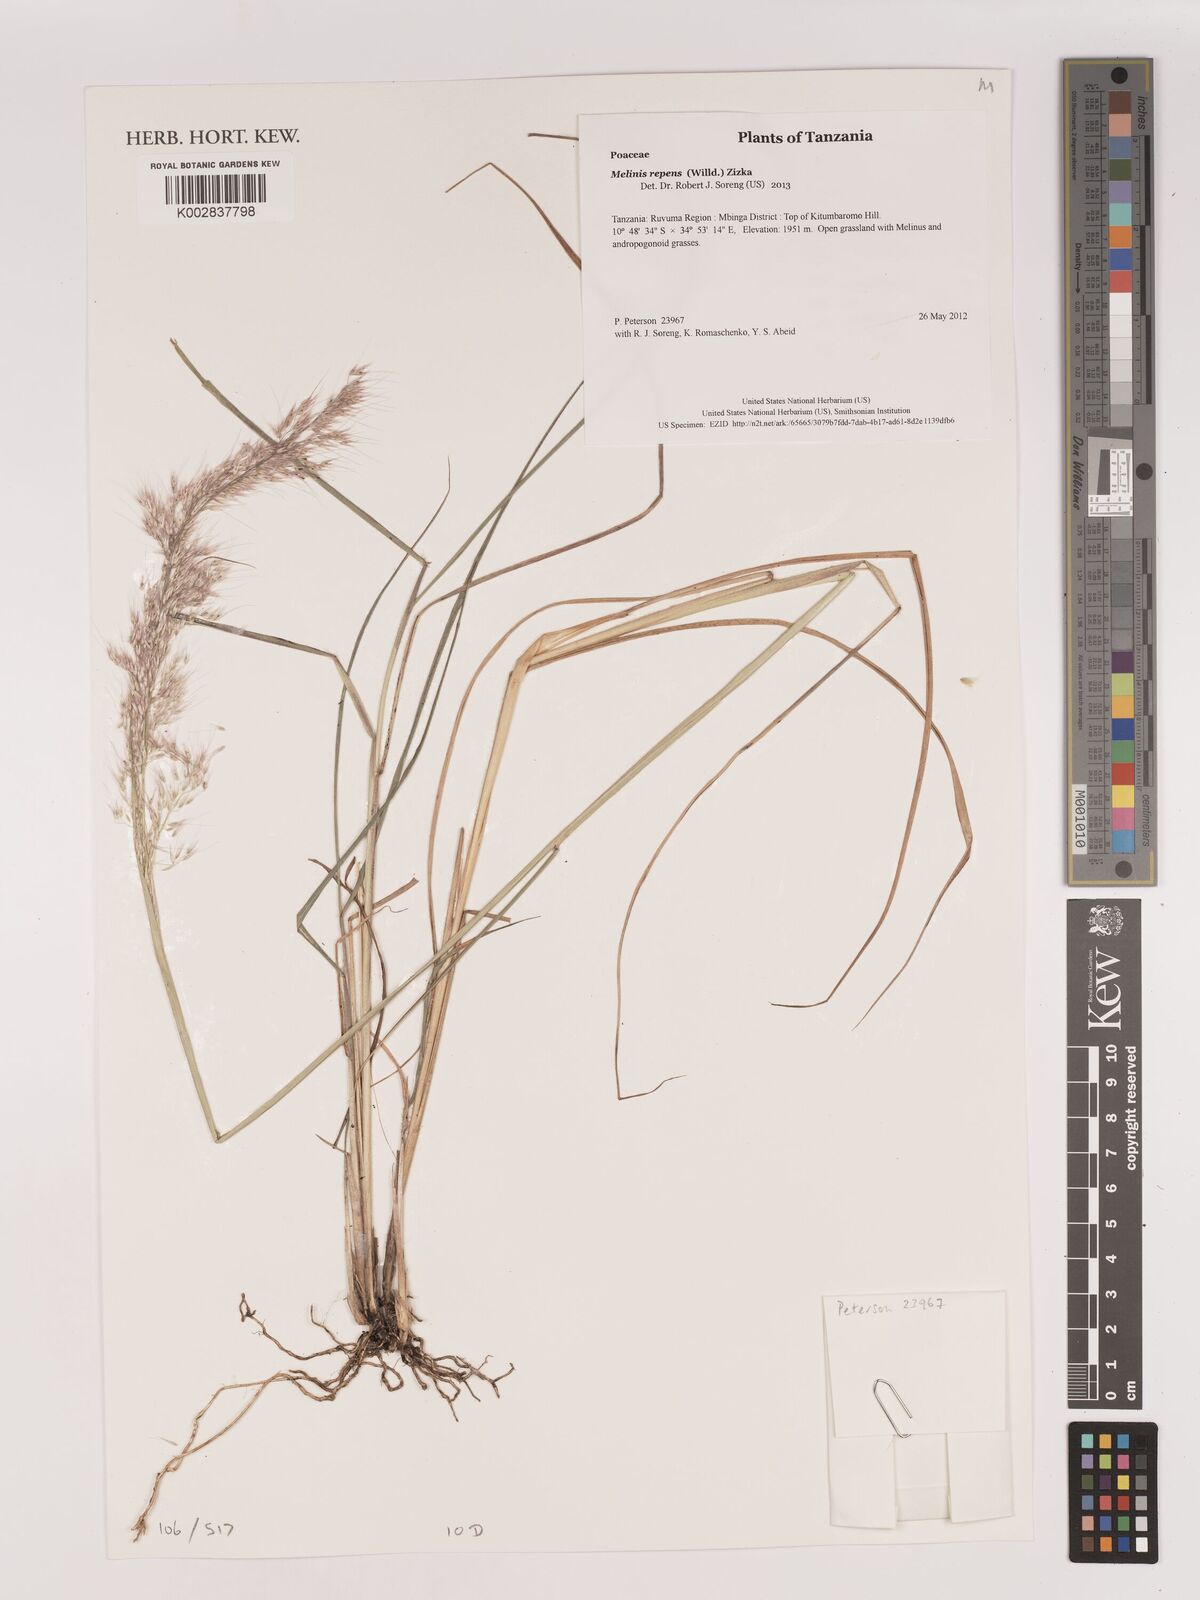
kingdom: Plantae
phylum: Tracheophyta
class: Liliopsida
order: Poales
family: Poaceae
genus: Melinis
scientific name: Melinis repens
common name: Rose natal grass
